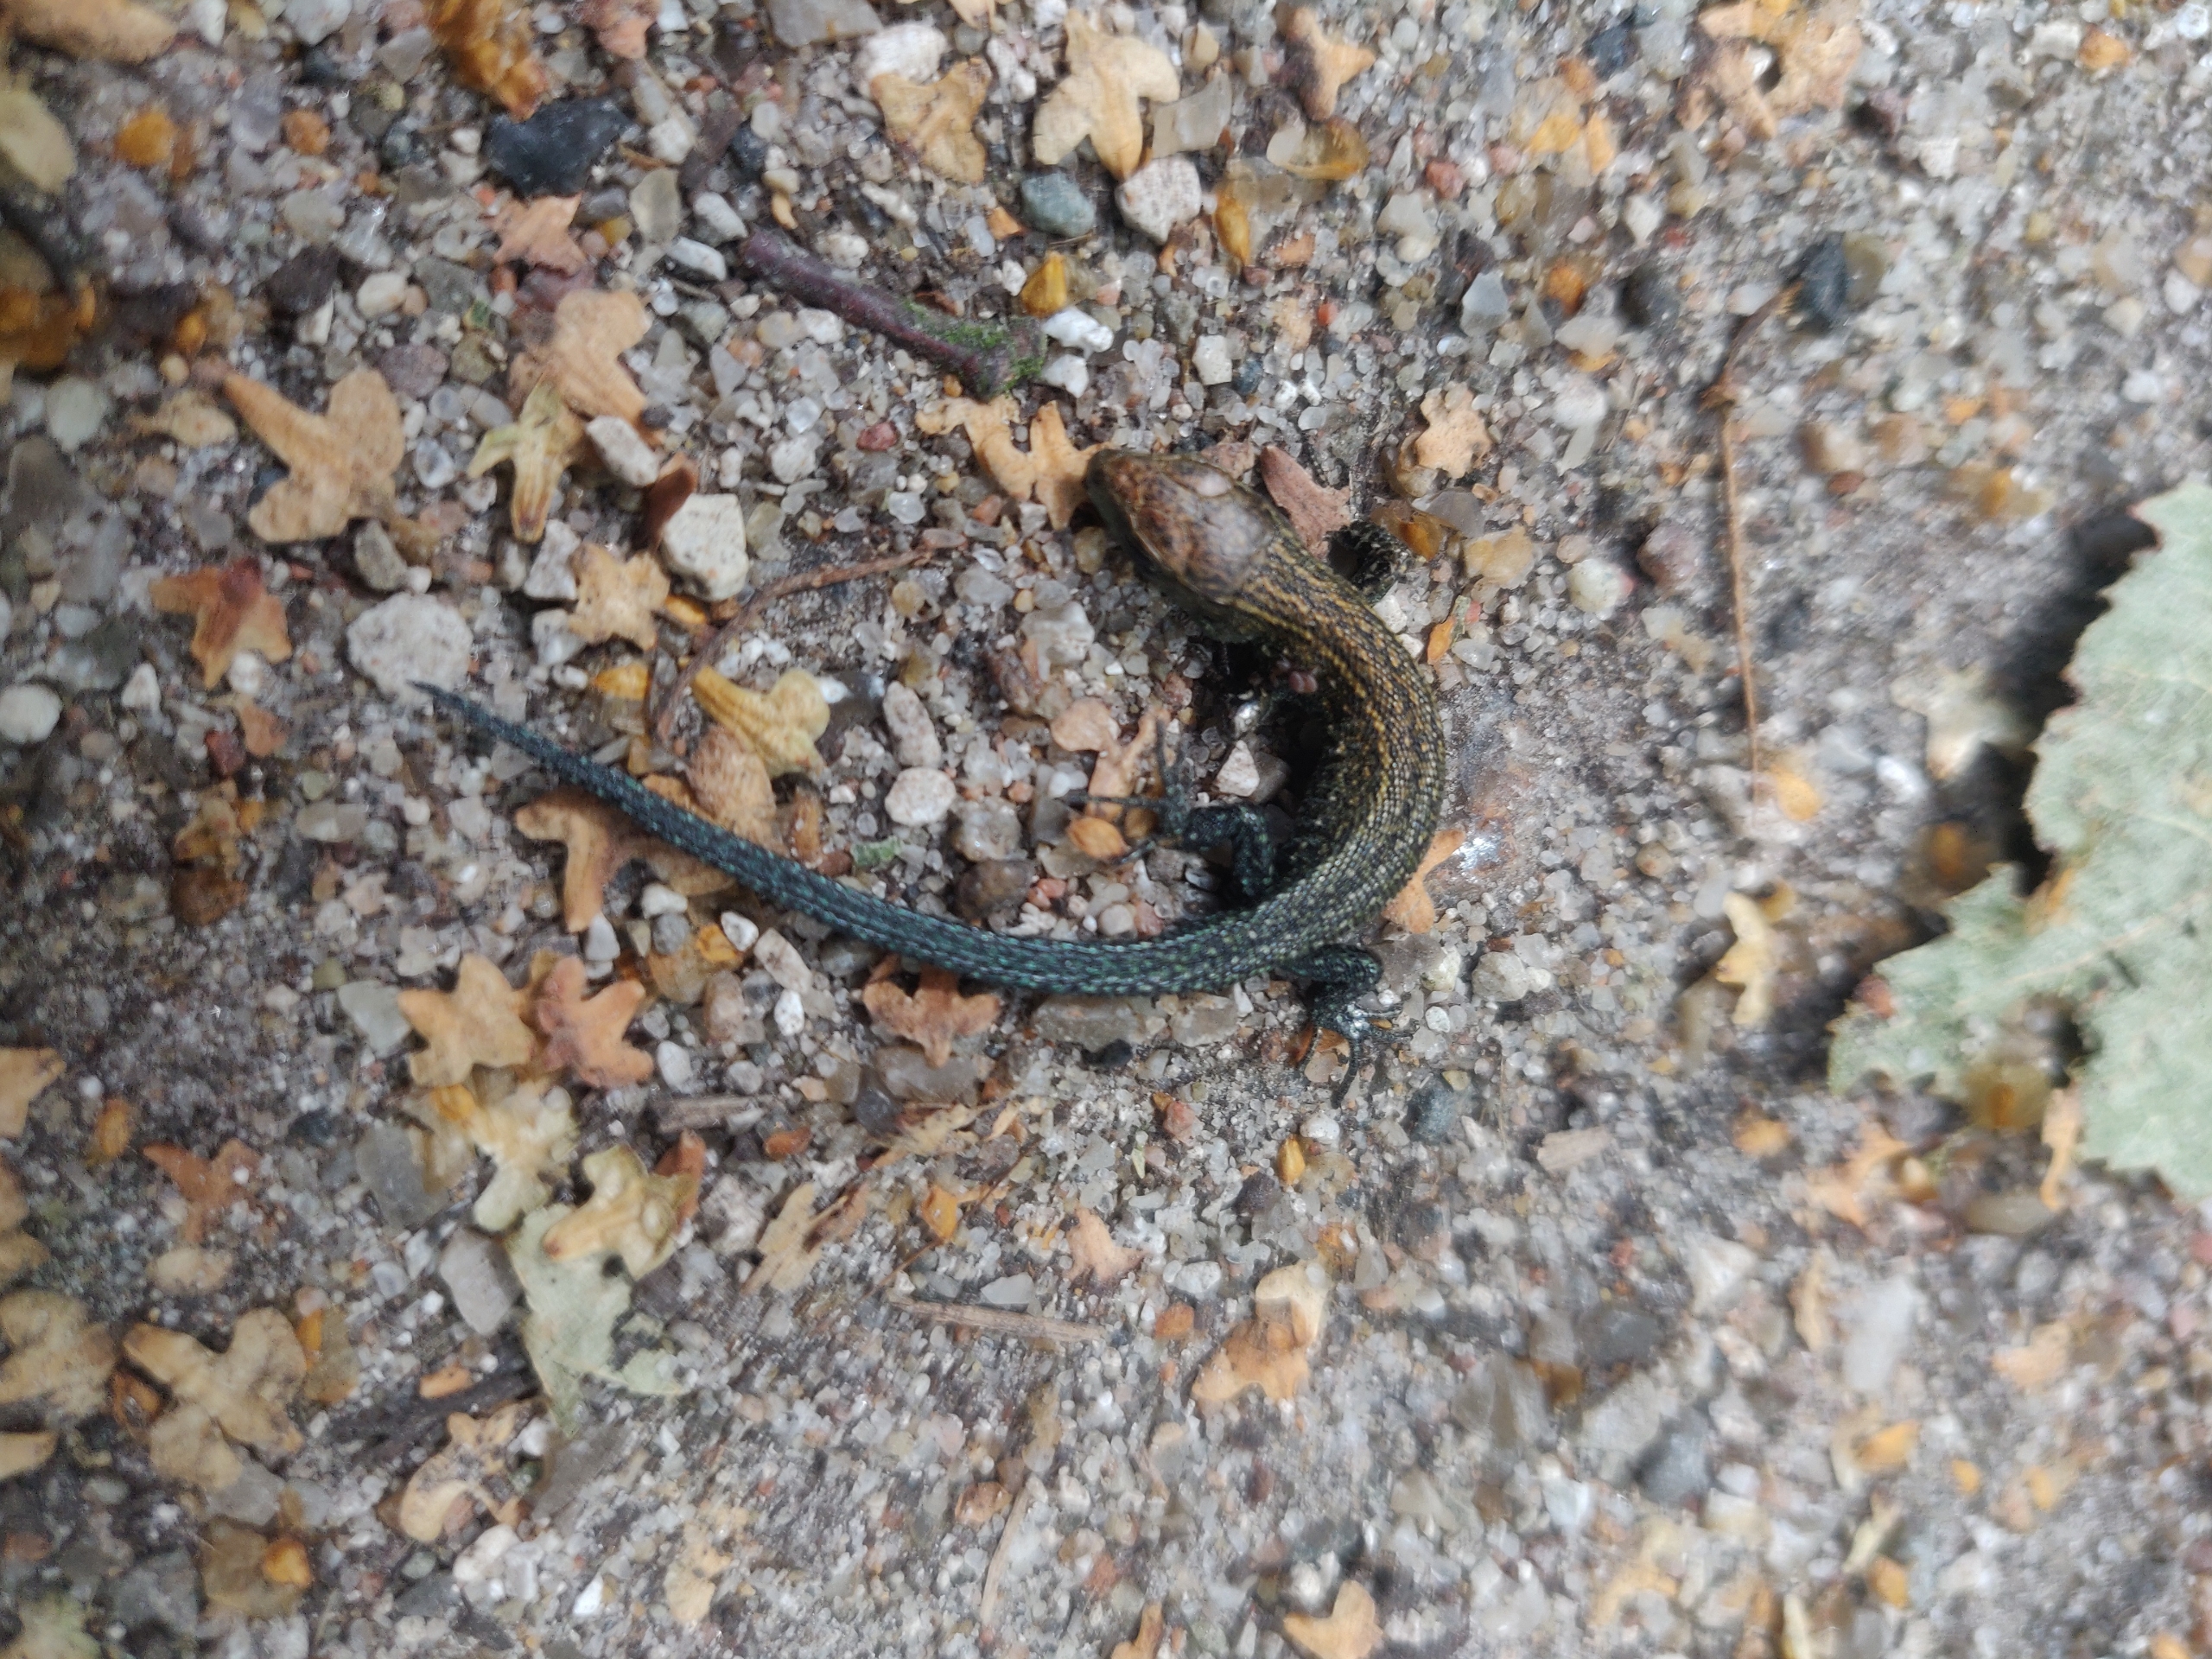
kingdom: Animalia
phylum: Chordata
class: Squamata
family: Lacertidae
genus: Zootoca
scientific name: Zootoca vivipara
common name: Skovfirben
